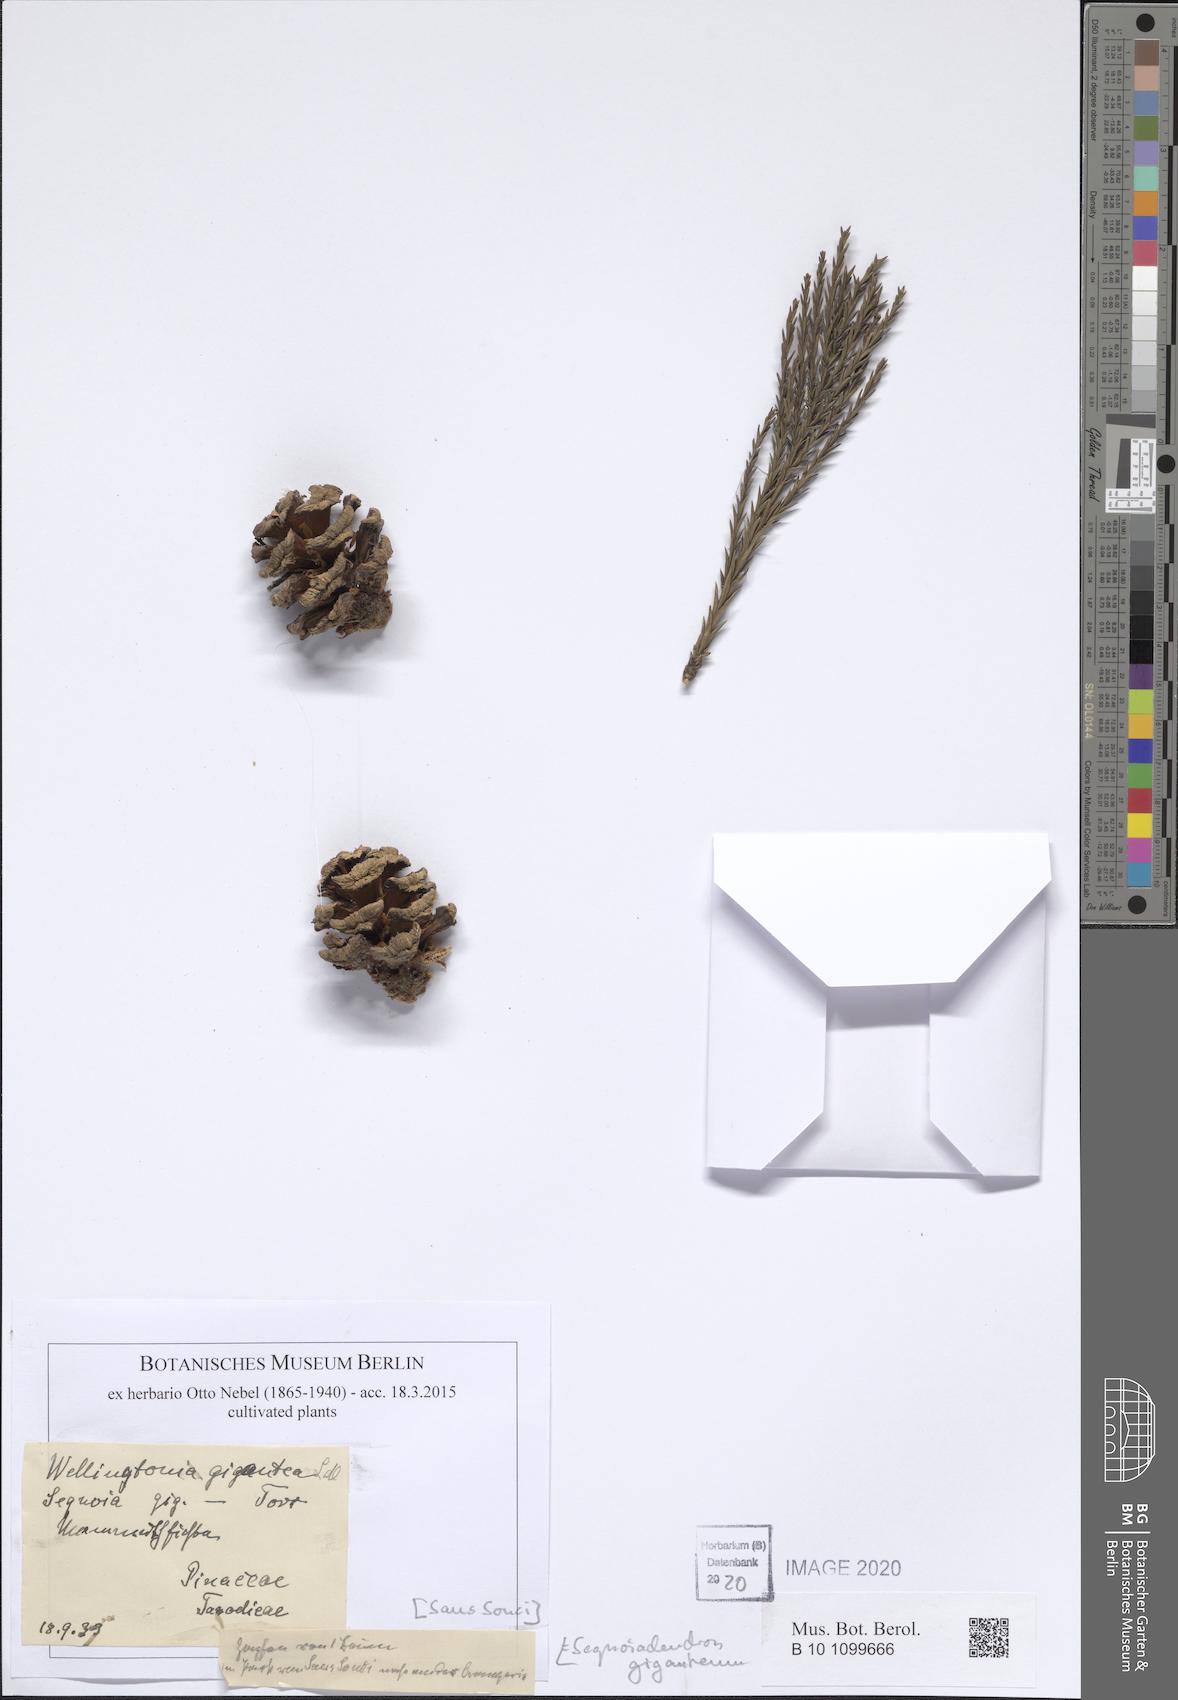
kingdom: Plantae
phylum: Tracheophyta
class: Pinopsida
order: Pinales
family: Cupressaceae
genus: Sequoiadendron
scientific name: Sequoiadendron giganteum
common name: Wellingtonia
